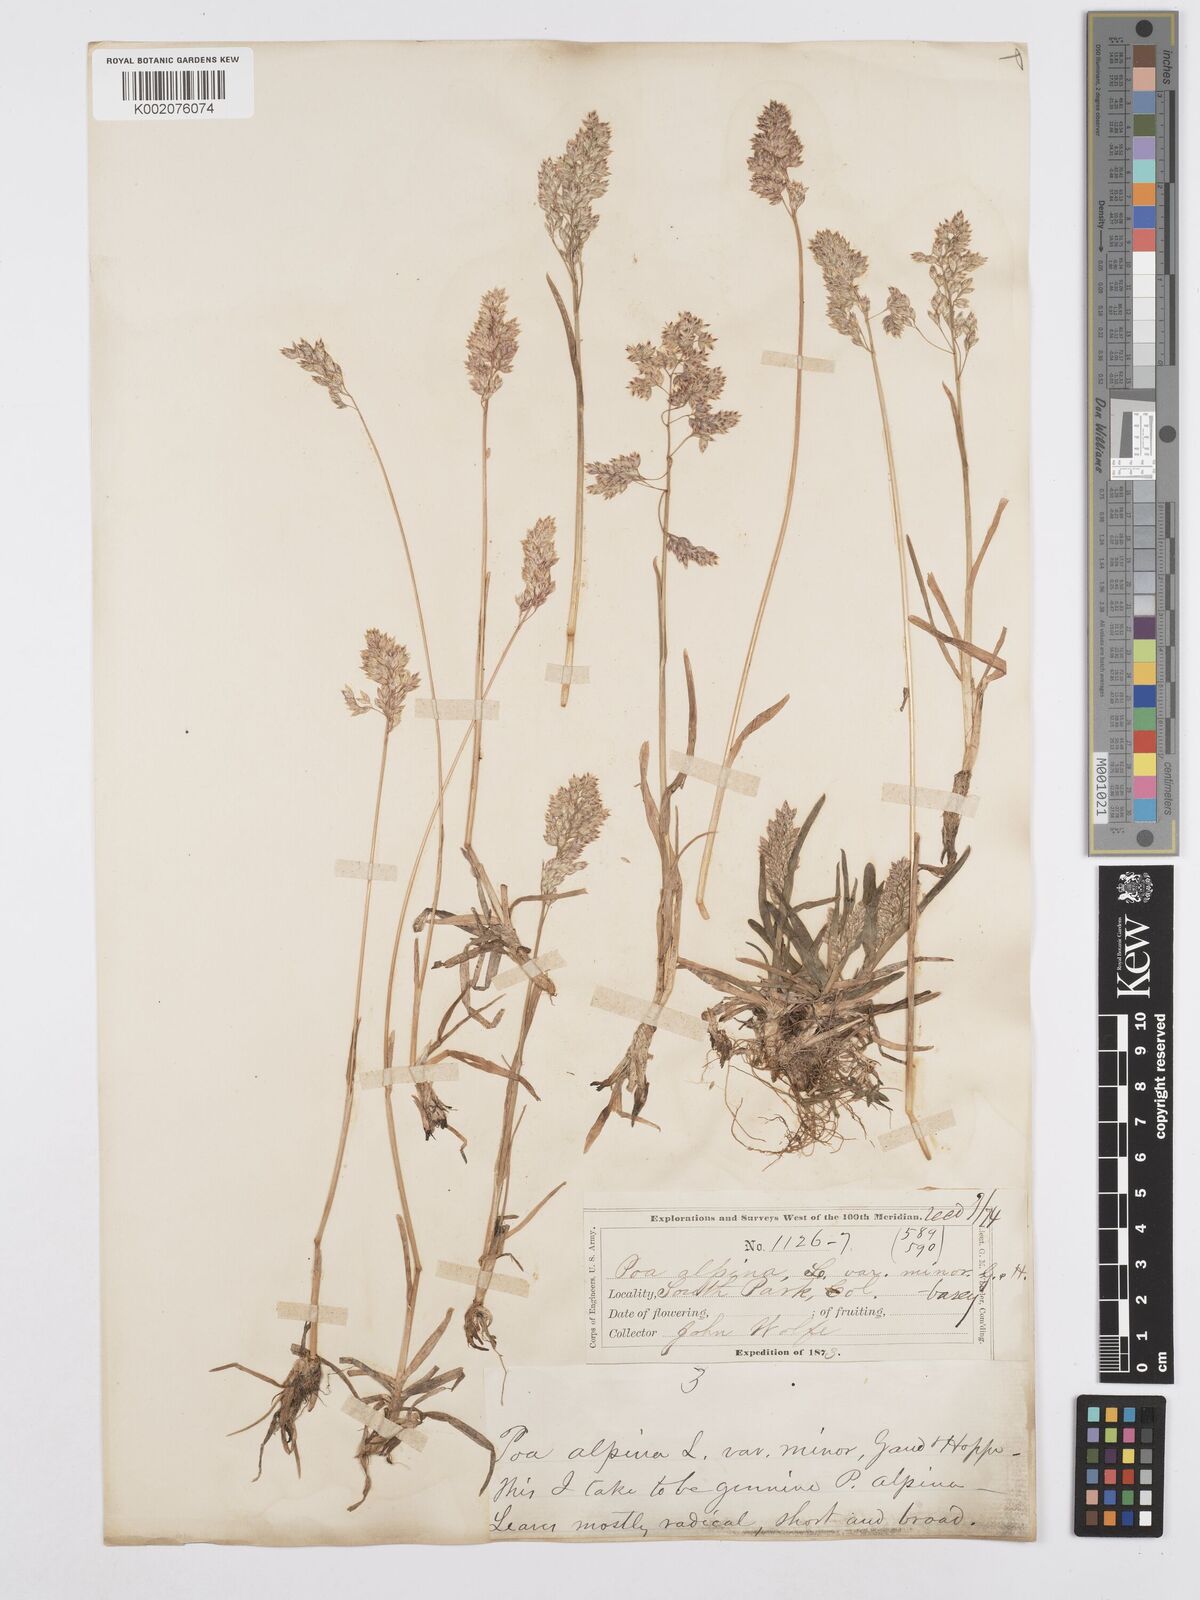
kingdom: Plantae
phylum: Tracheophyta
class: Liliopsida
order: Poales
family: Poaceae
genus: Poa
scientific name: Poa alpina
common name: Alpine bluegrass
